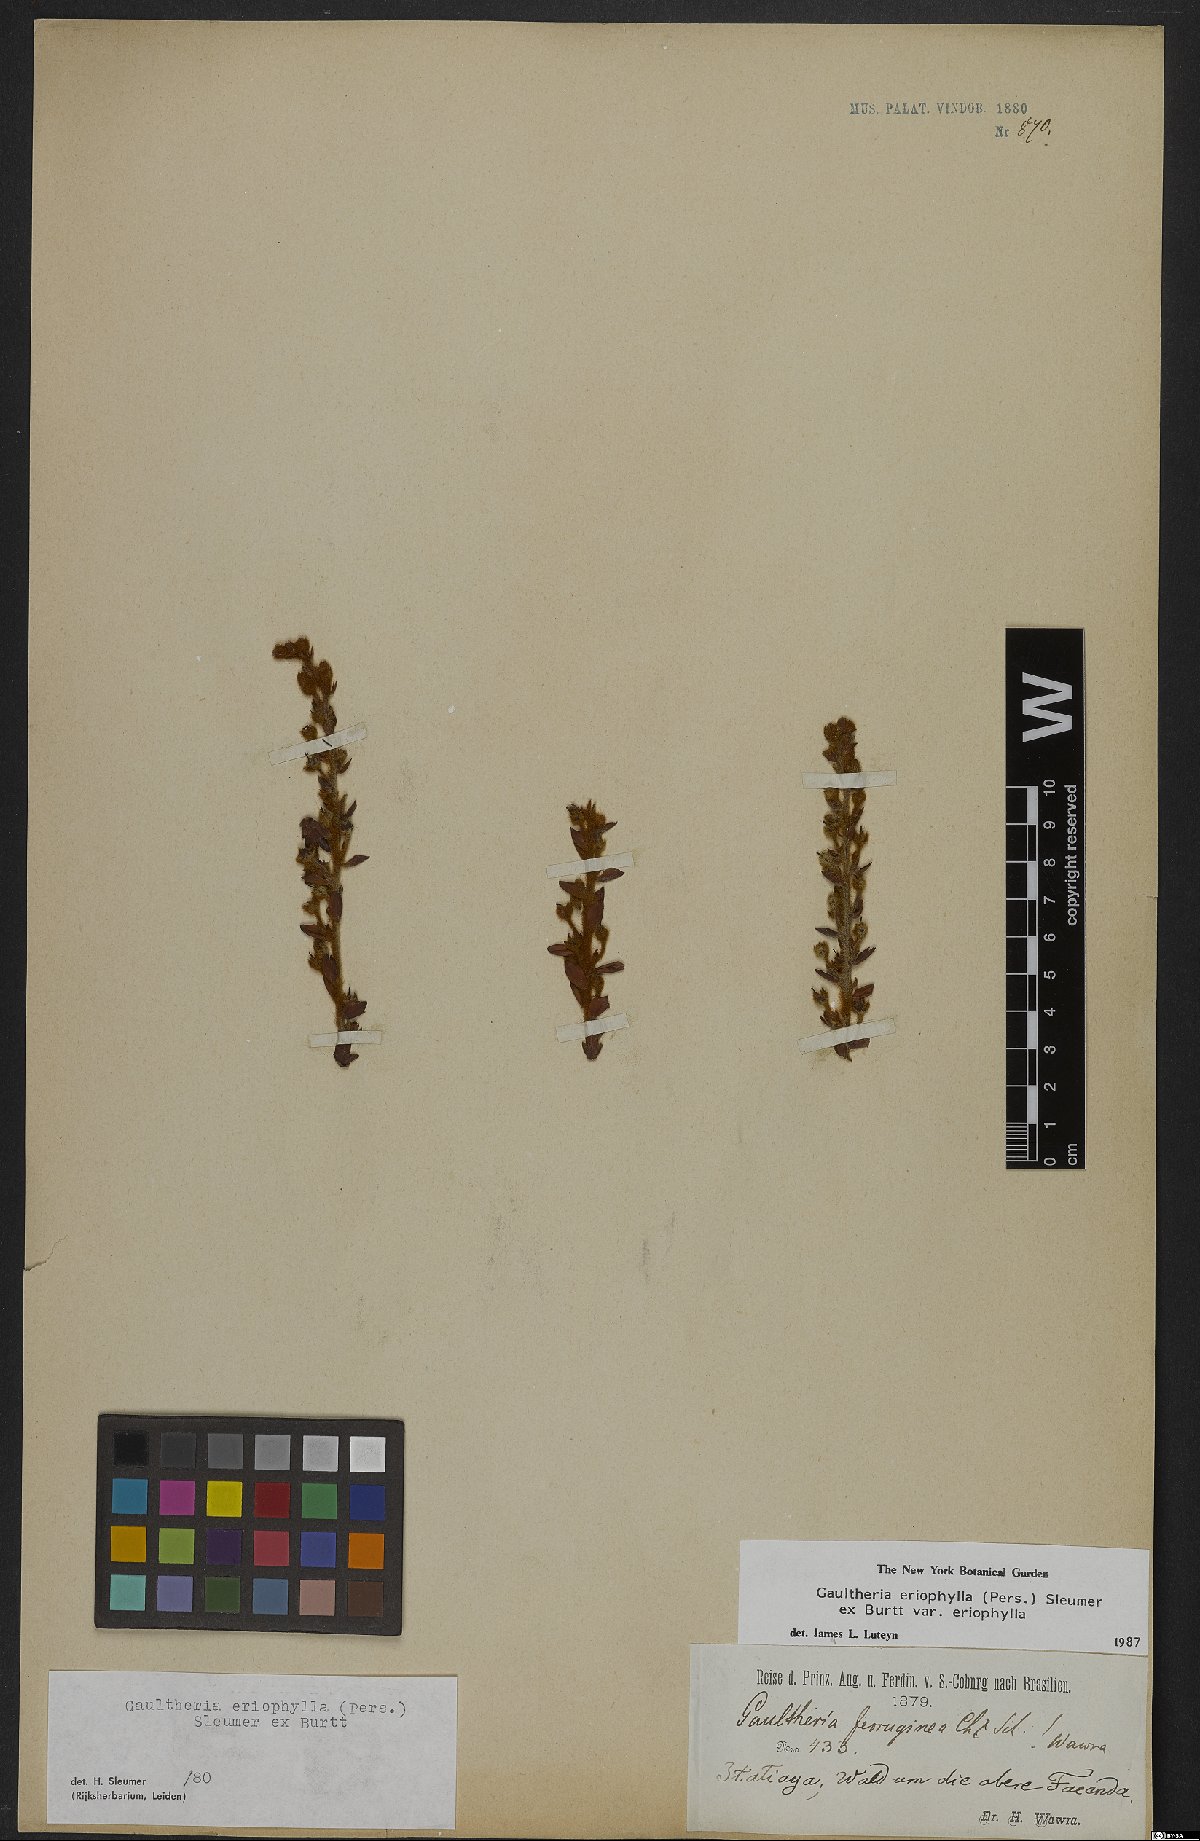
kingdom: Plantae
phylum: Tracheophyta
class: Magnoliopsida
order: Ericales
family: Ericaceae
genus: Gaultheria
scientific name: Gaultheria eriophylla
